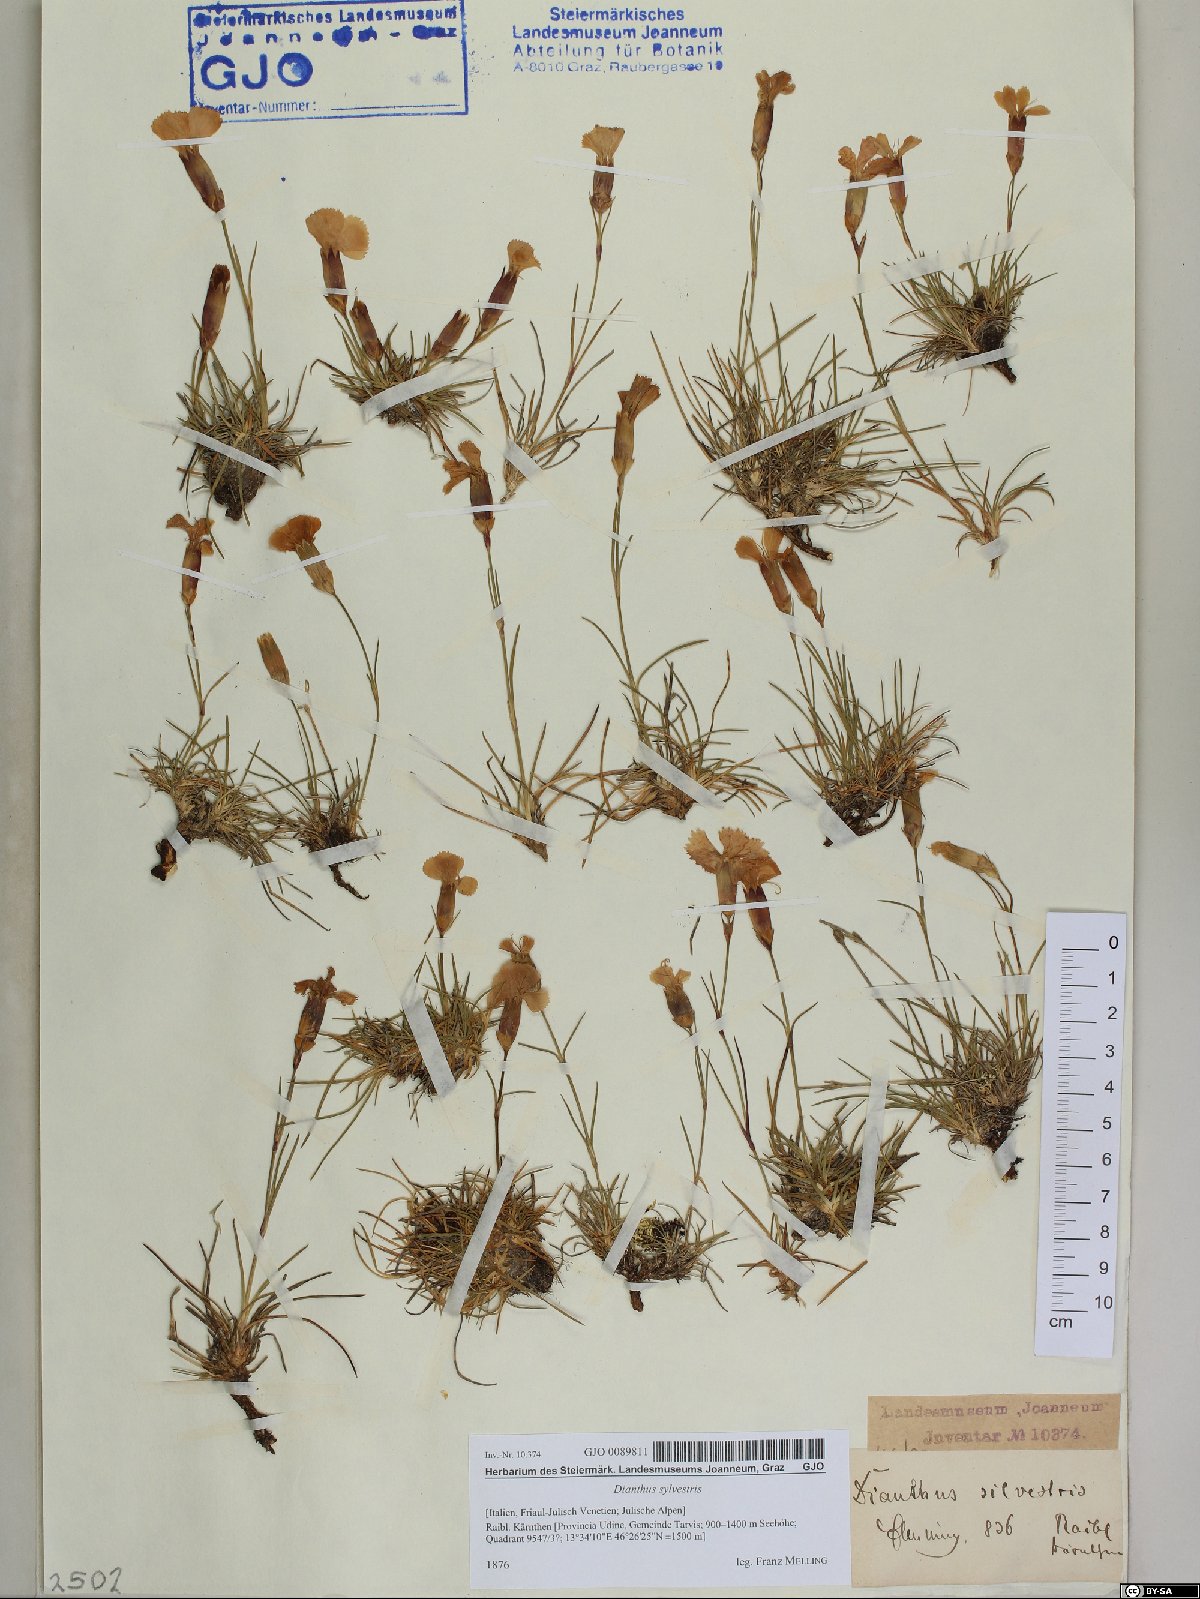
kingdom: Plantae
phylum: Tracheophyta
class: Magnoliopsida
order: Caryophyllales
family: Caryophyllaceae
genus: Dianthus
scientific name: Dianthus sylvestris
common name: Wood pink
